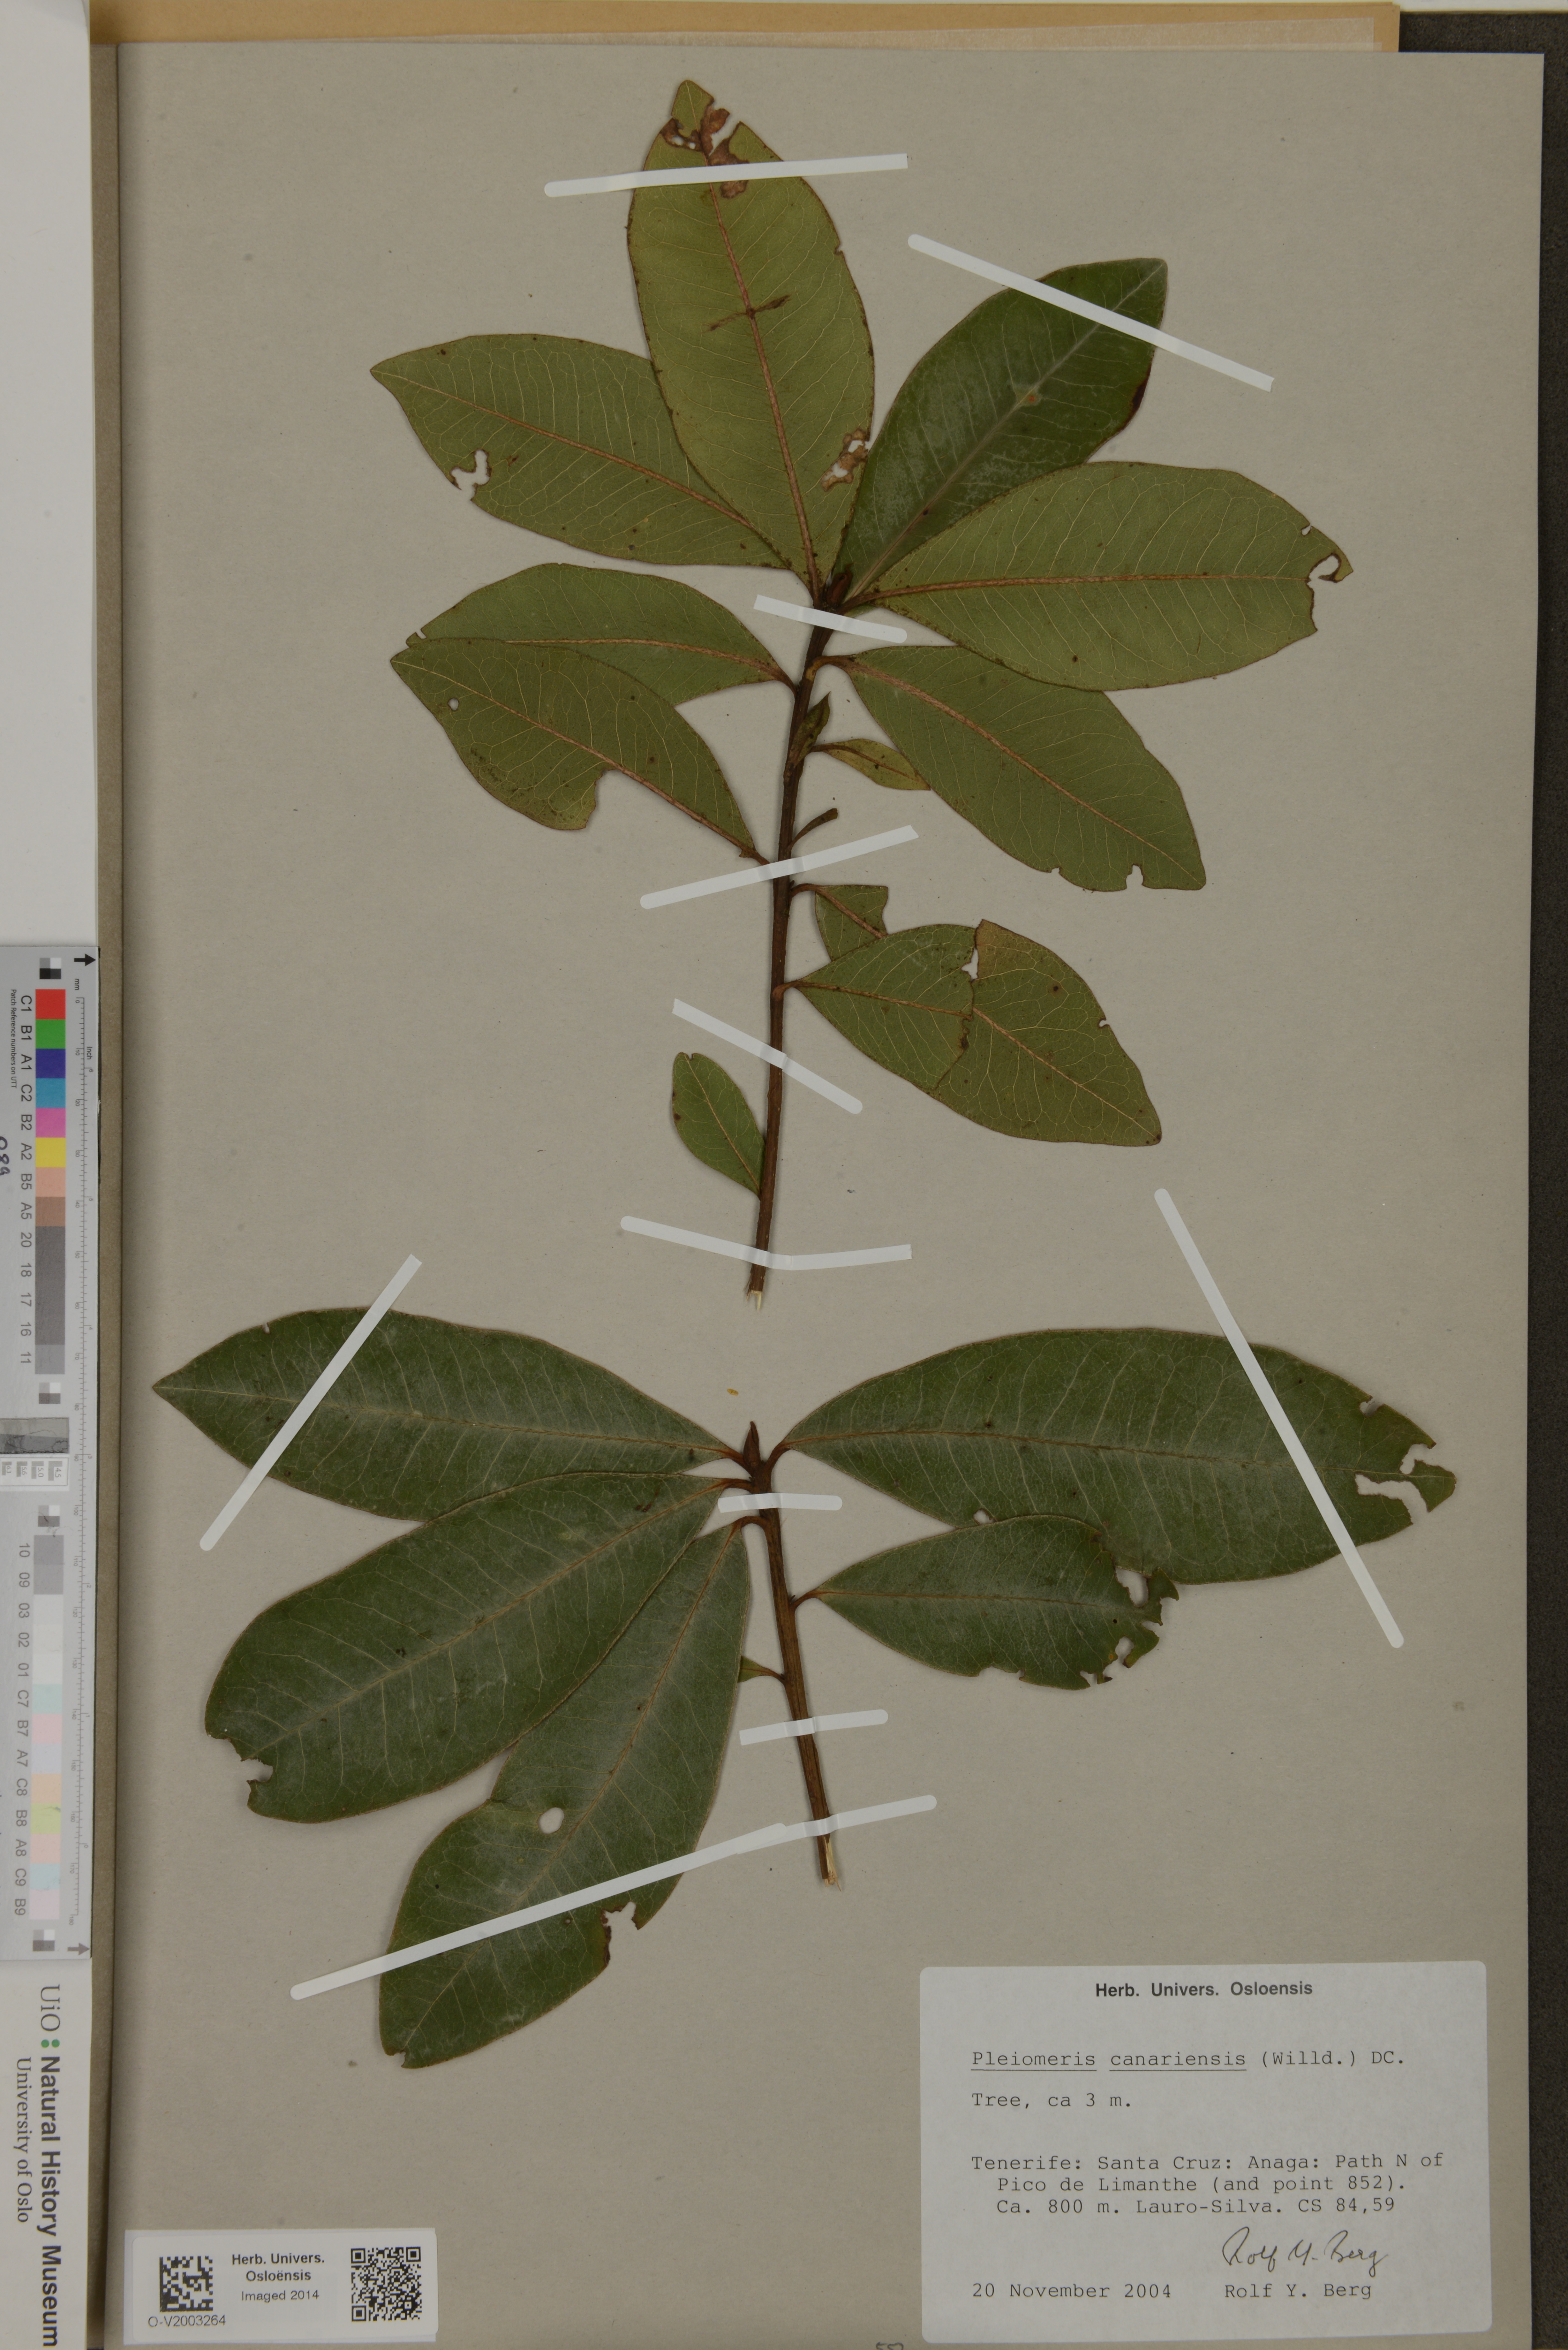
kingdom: Plantae
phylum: Tracheophyta
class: Magnoliopsida
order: Ericales
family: Primulaceae
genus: Pleiomeris
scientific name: Pleiomeris canariensis
